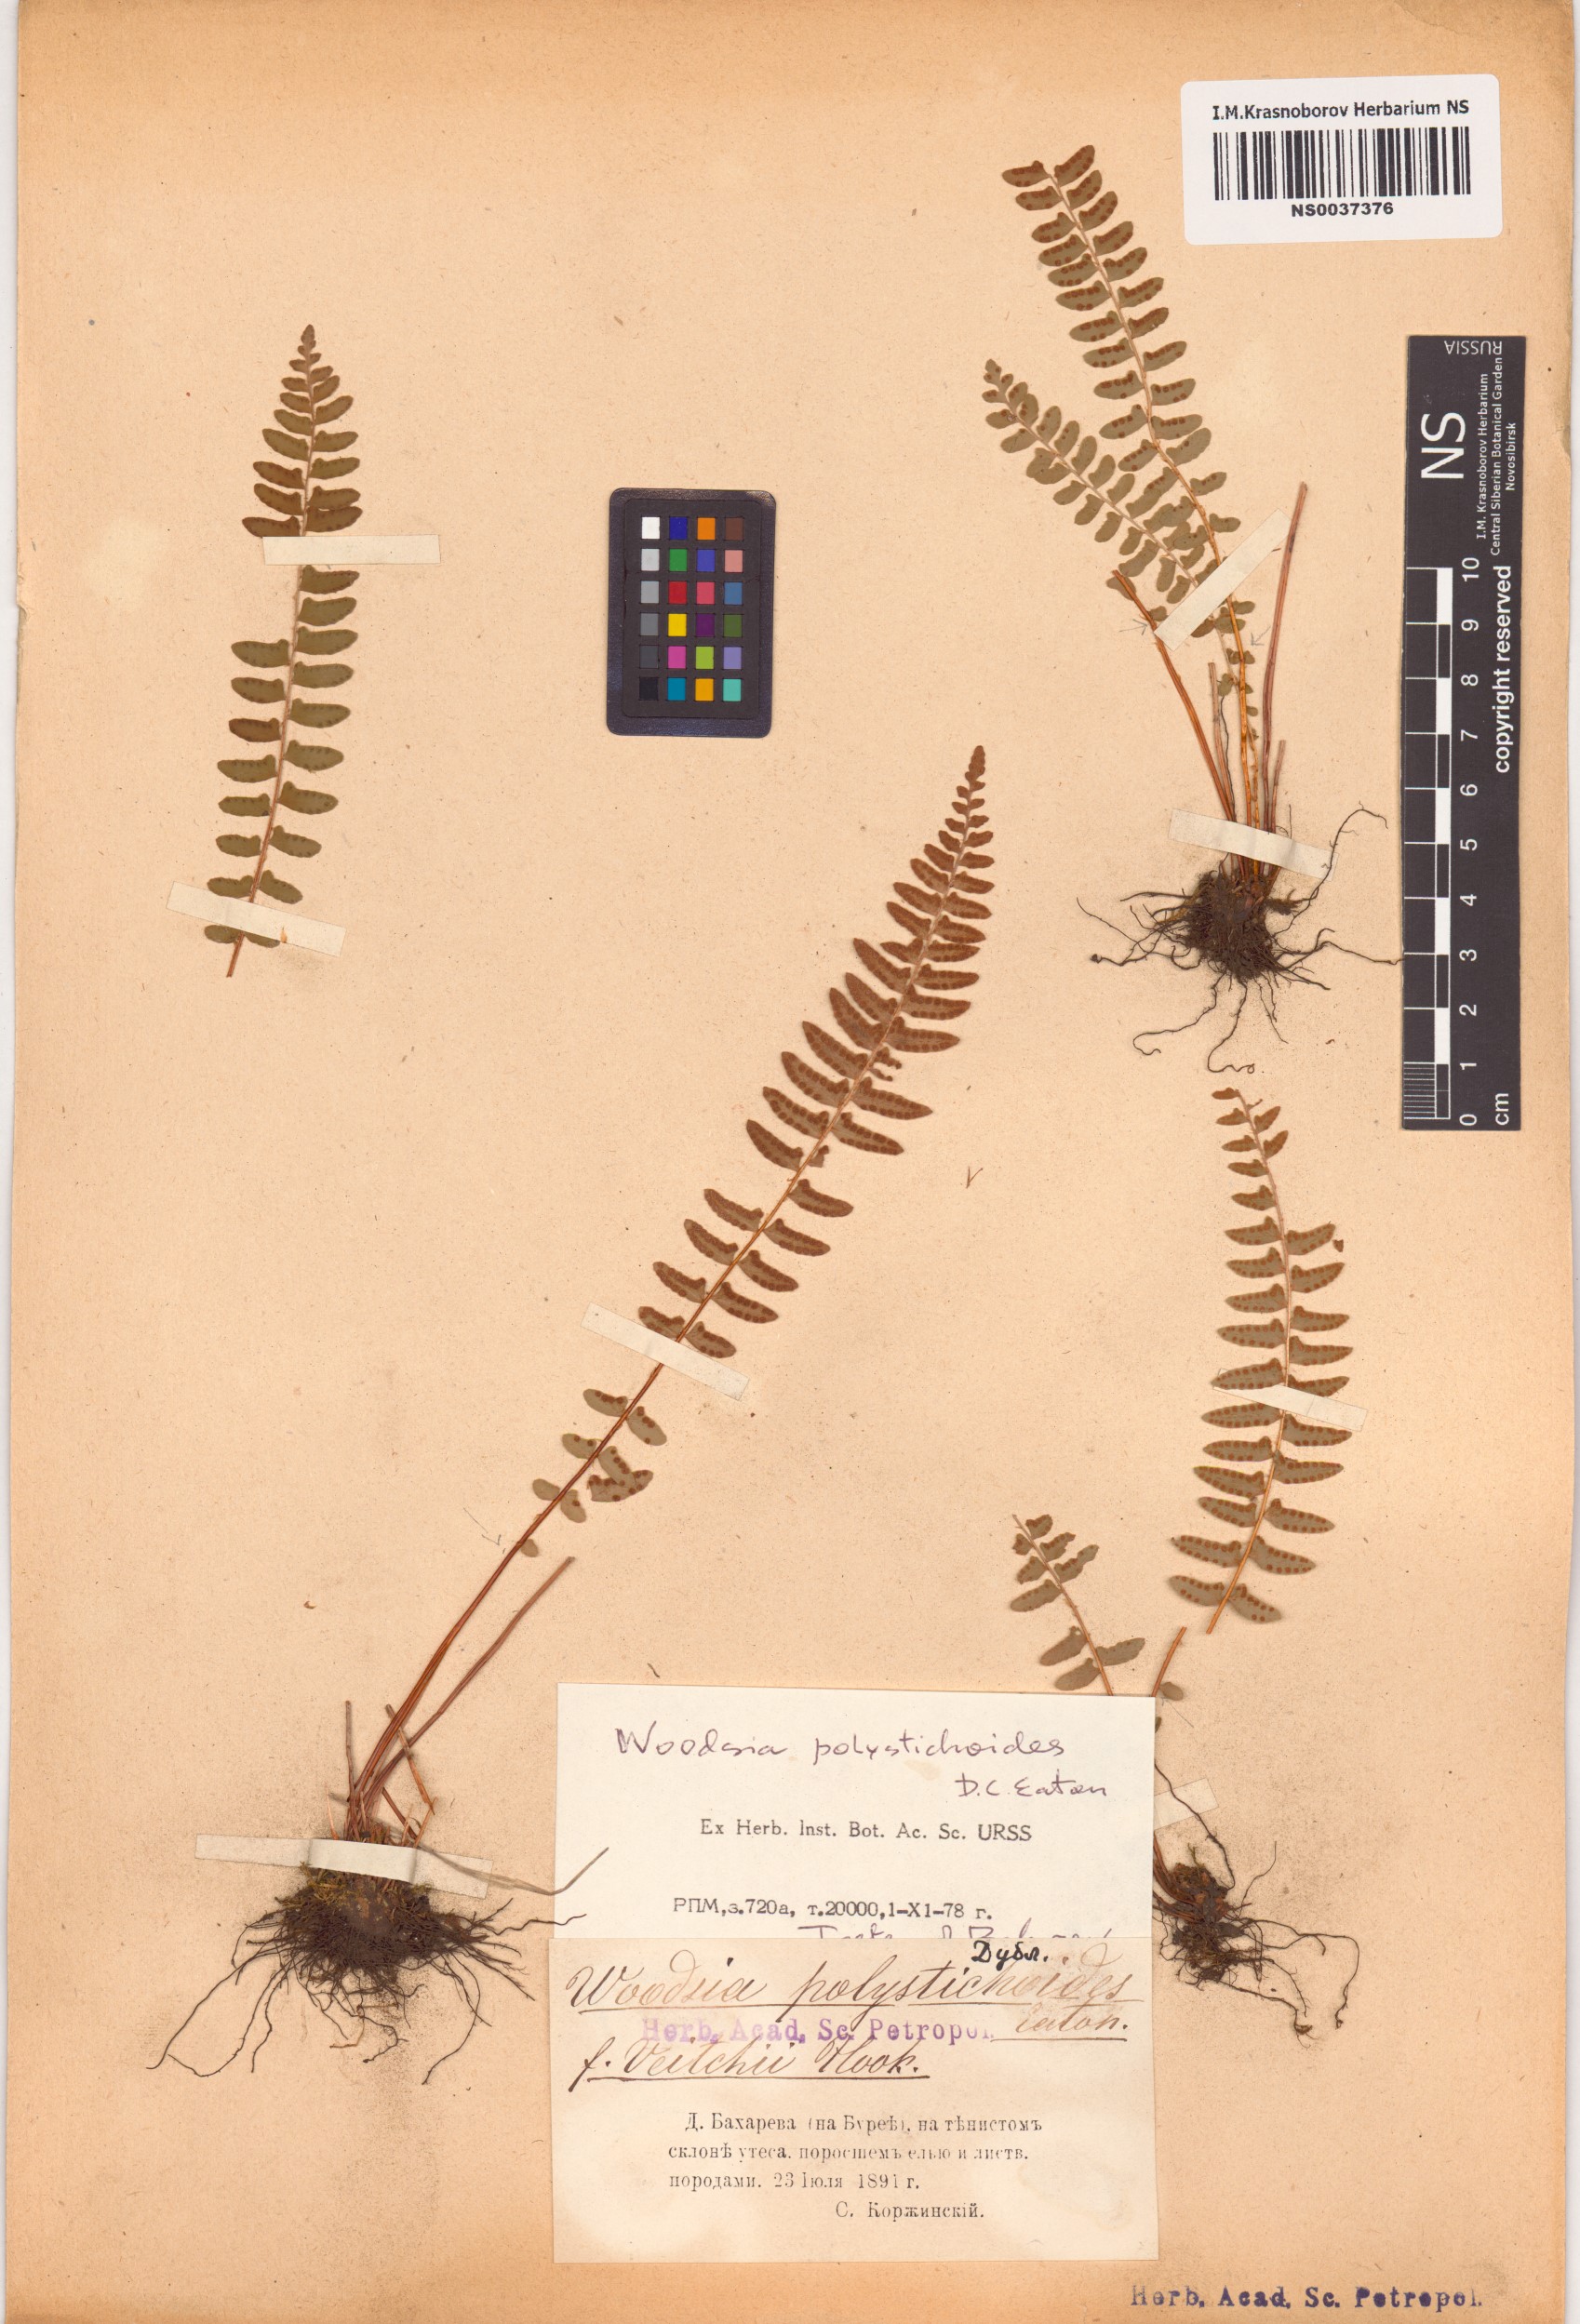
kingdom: Plantae
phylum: Tracheophyta
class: Polypodiopsida
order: Polypodiales
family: Woodsiaceae
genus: Woodsia
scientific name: Woodsia polystichoides
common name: Holly fern woodsia
